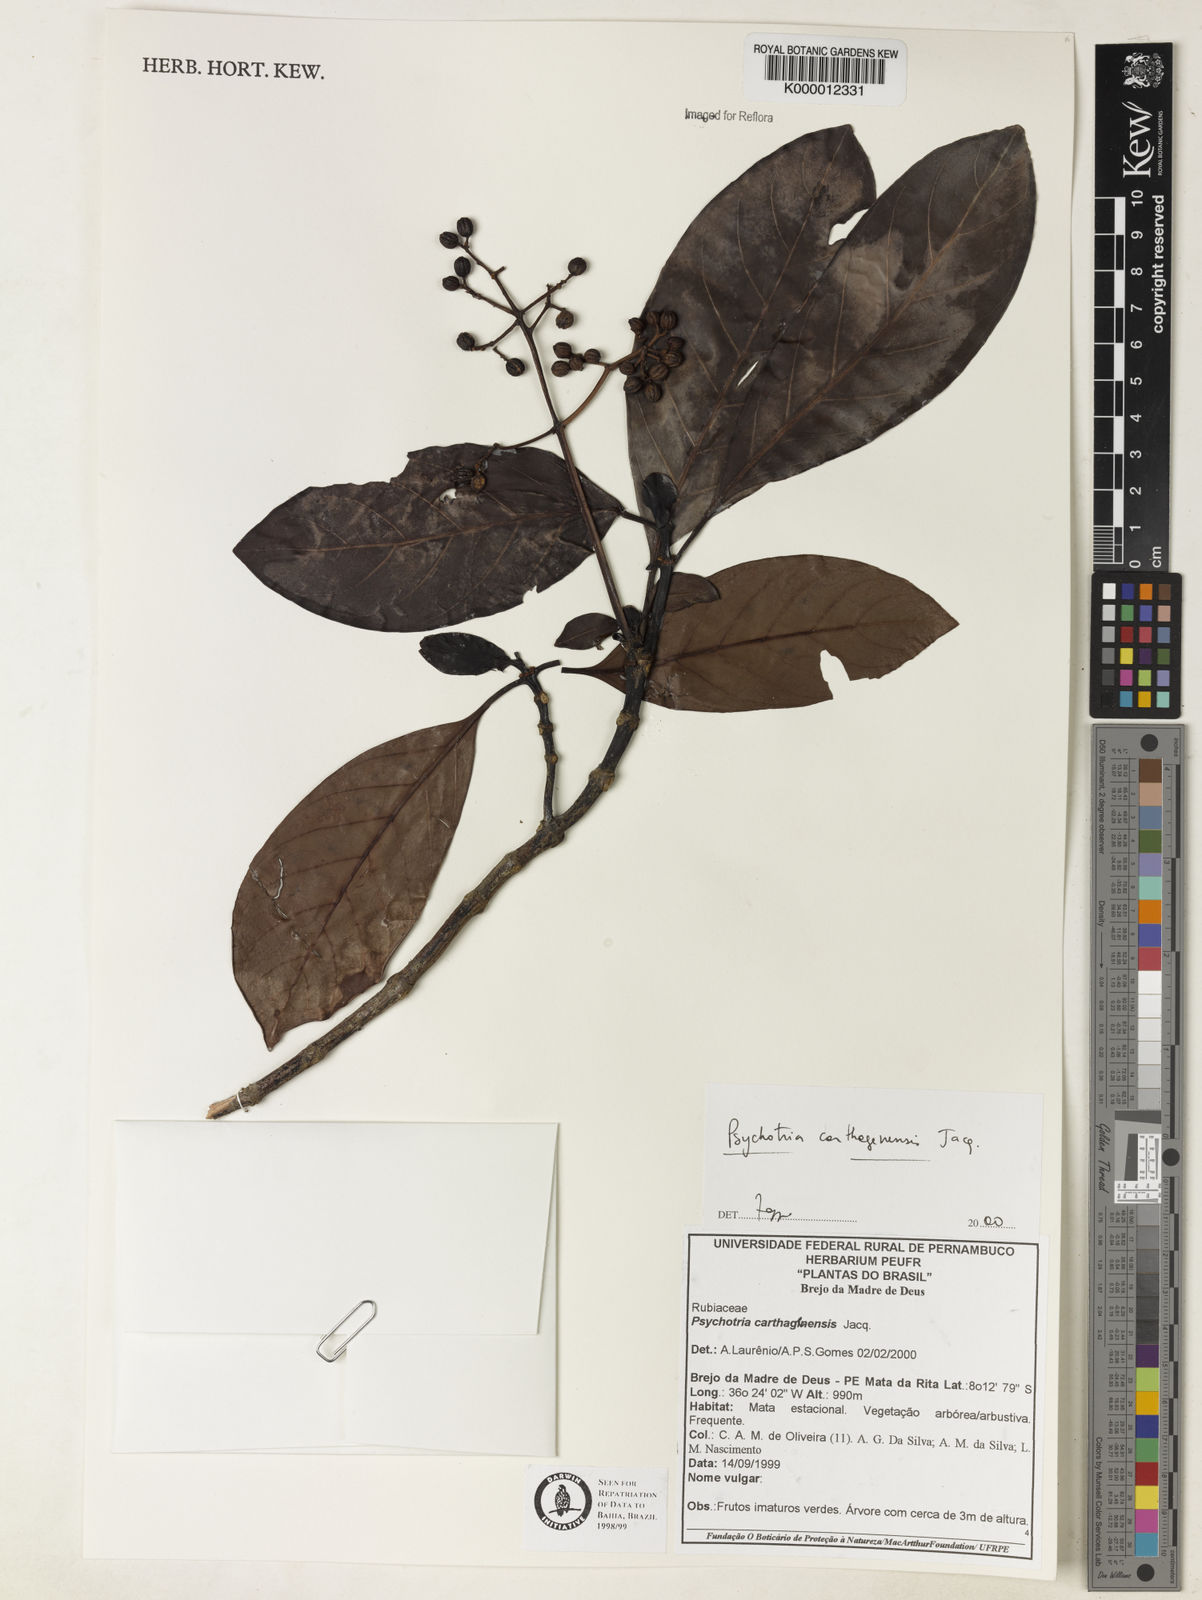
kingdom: Plantae
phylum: Tracheophyta
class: Magnoliopsida
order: Gentianales
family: Rubiaceae
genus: Psychotria
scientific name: Psychotria carthagenensis
